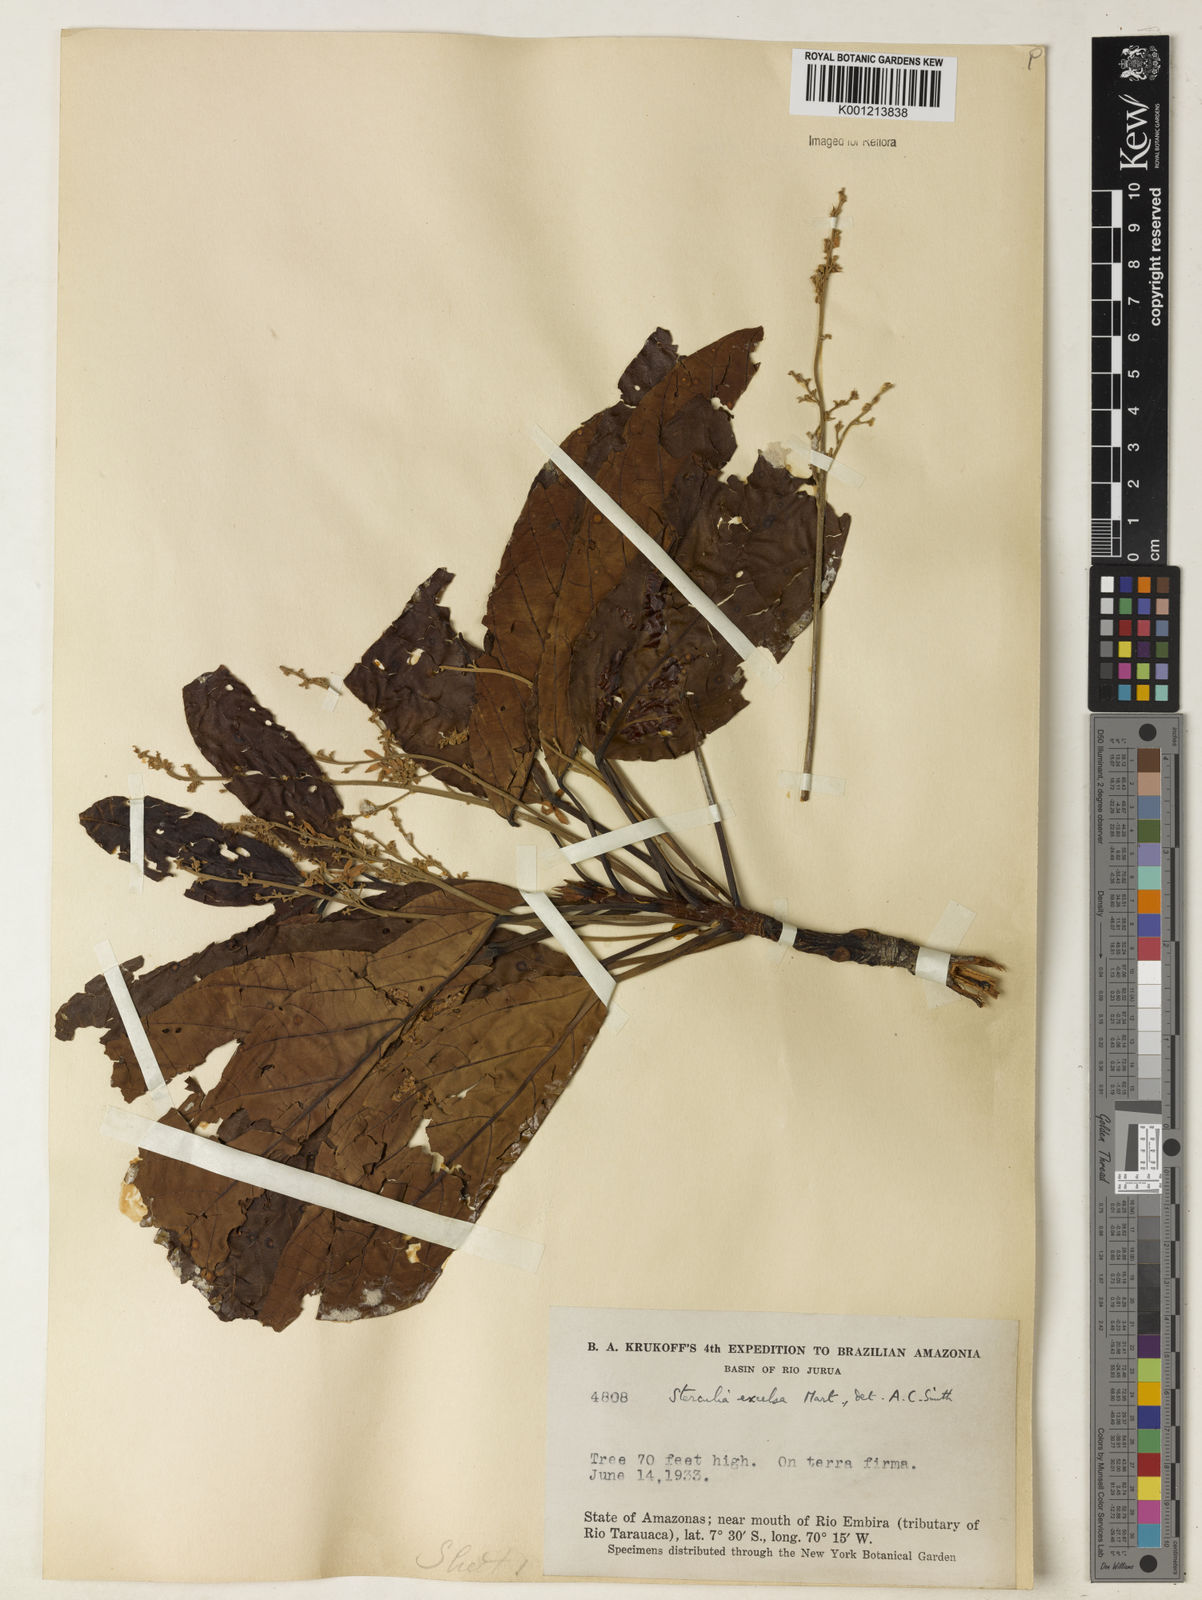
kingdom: Plantae
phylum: Tracheophyta
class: Magnoliopsida
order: Malvales
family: Malvaceae
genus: Sterculia
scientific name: Sterculia excelsa
